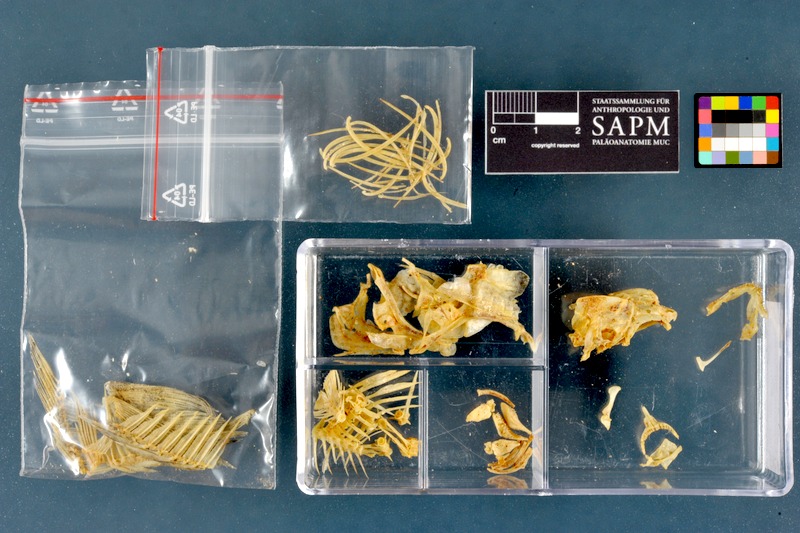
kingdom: Animalia
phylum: Chordata
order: Perciformes
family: Centrarchidae
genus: Lepomis
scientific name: Lepomis gibbosus
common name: Pumpkinseed
